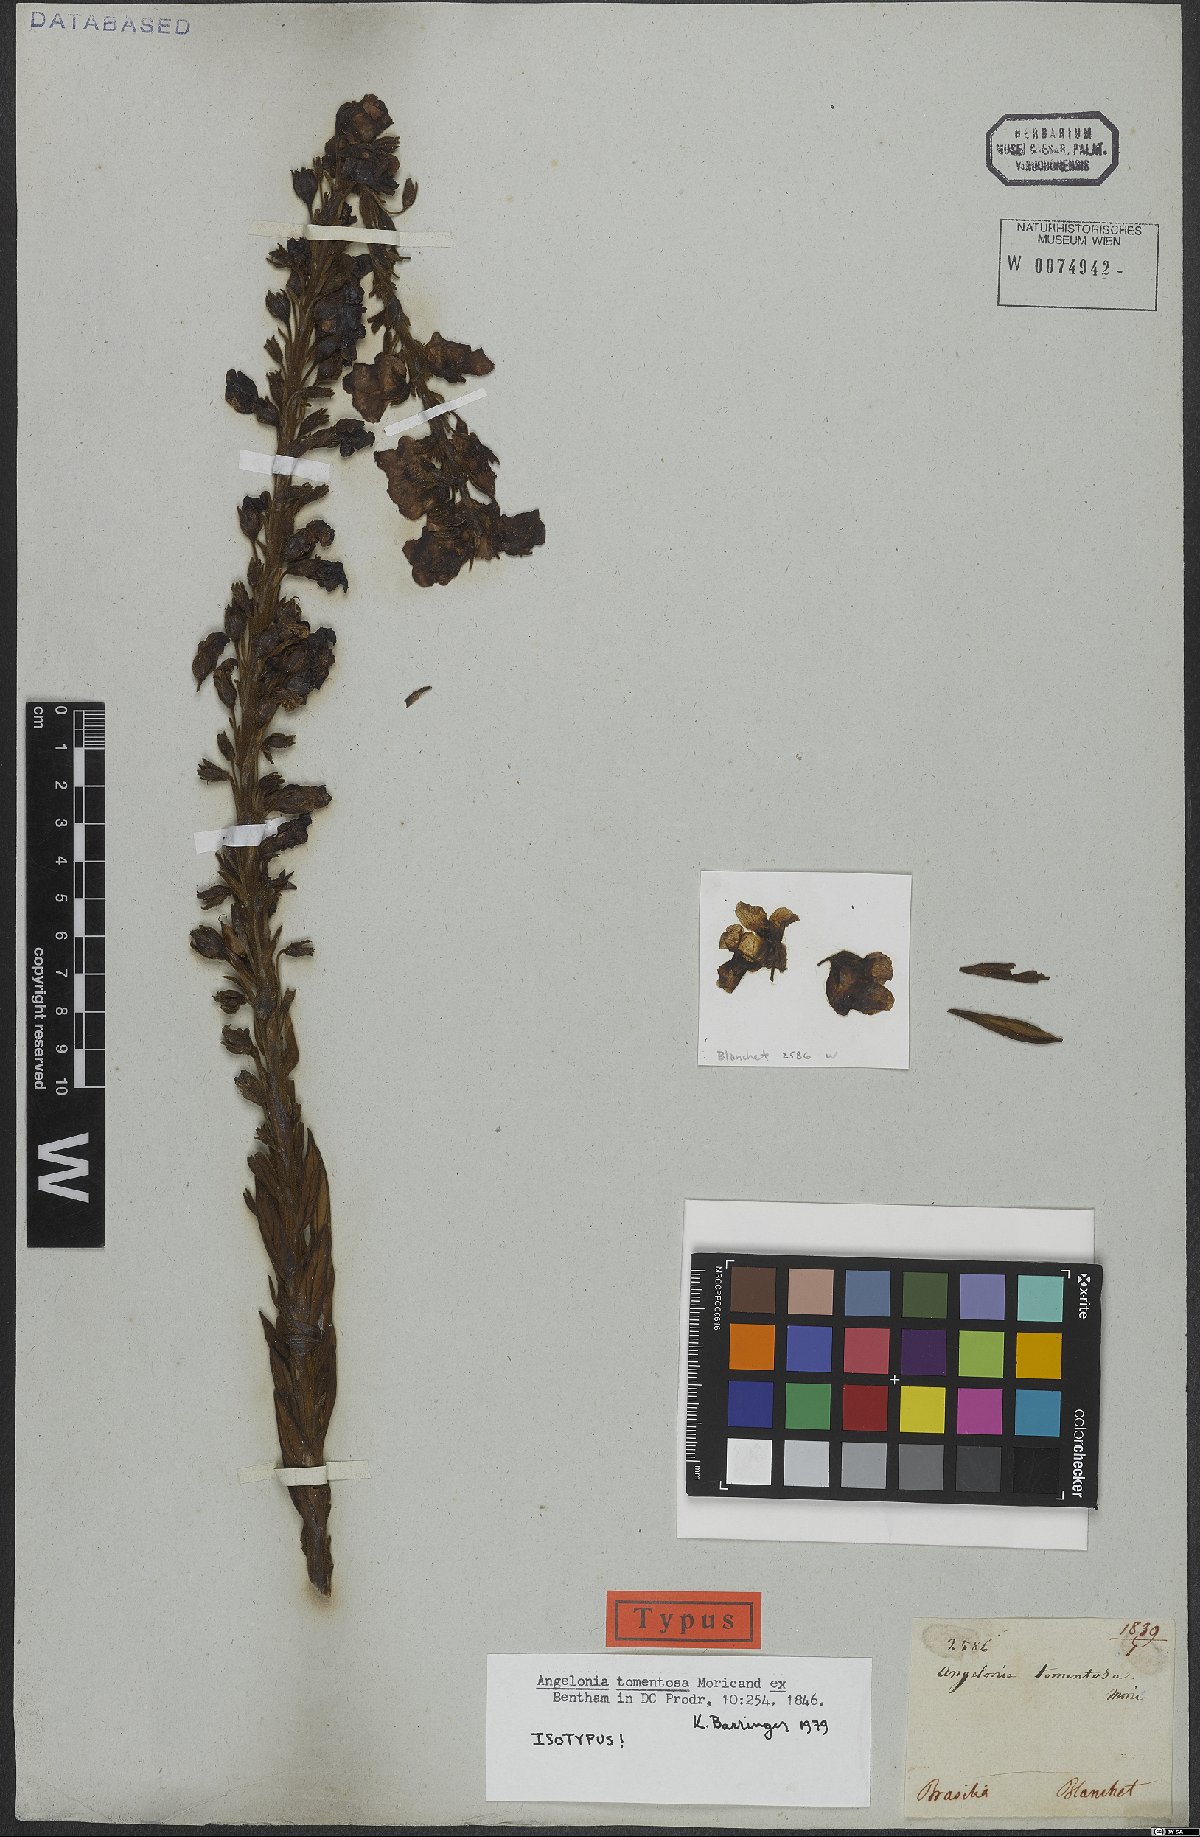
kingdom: Plantae
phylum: Tracheophyta
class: Magnoliopsida
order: Lamiales
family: Plantaginaceae
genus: Angelonia
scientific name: Angelonia tomentosa
